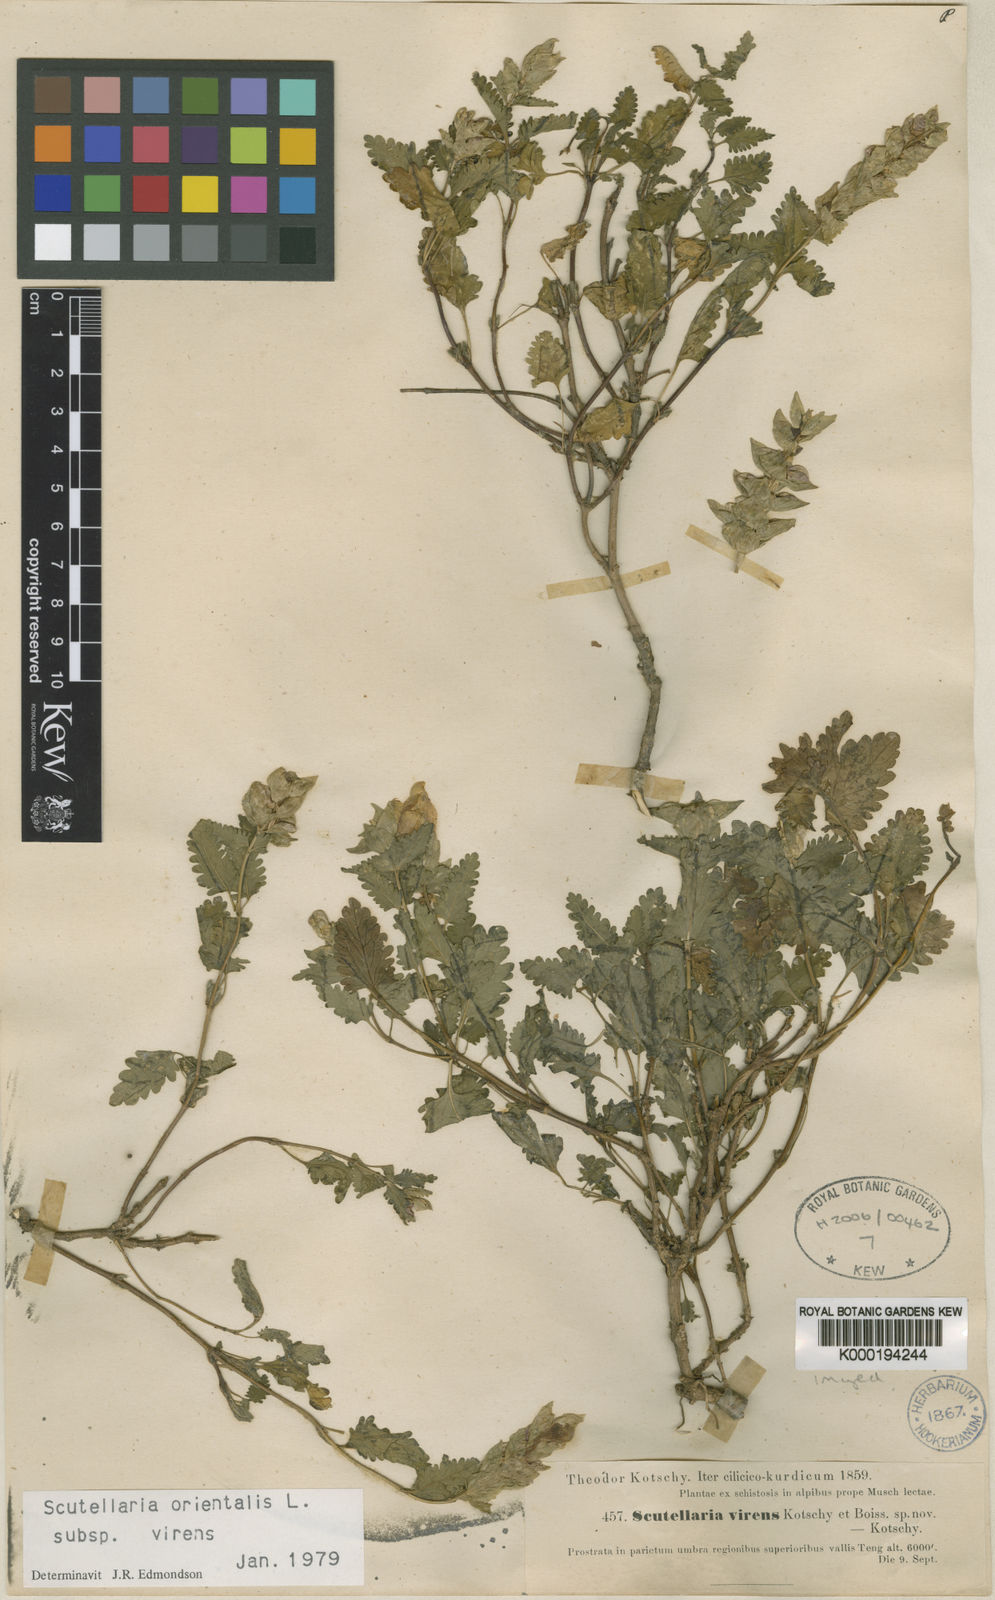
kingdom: Plantae
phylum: Tracheophyta
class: Magnoliopsida
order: Lamiales
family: Lamiaceae
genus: Scutellaria
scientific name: Scutellaria orientalis
